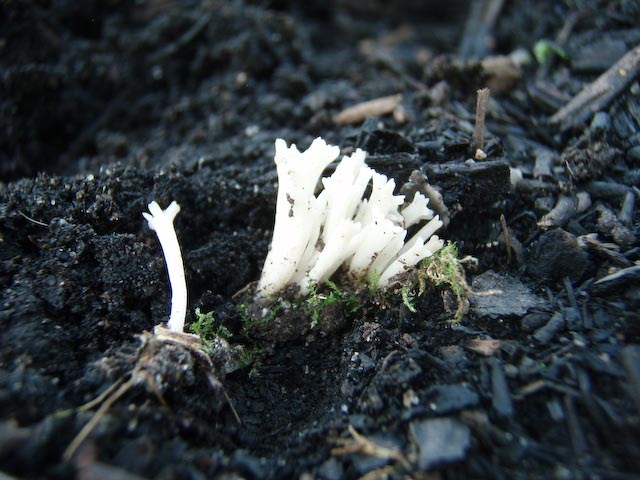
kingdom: Fungi
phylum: Basidiomycota
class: Agaricomycetes
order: Agaricales
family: Clavariaceae
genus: Ramariopsis
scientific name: Ramariopsis subtilis
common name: Slender coral
